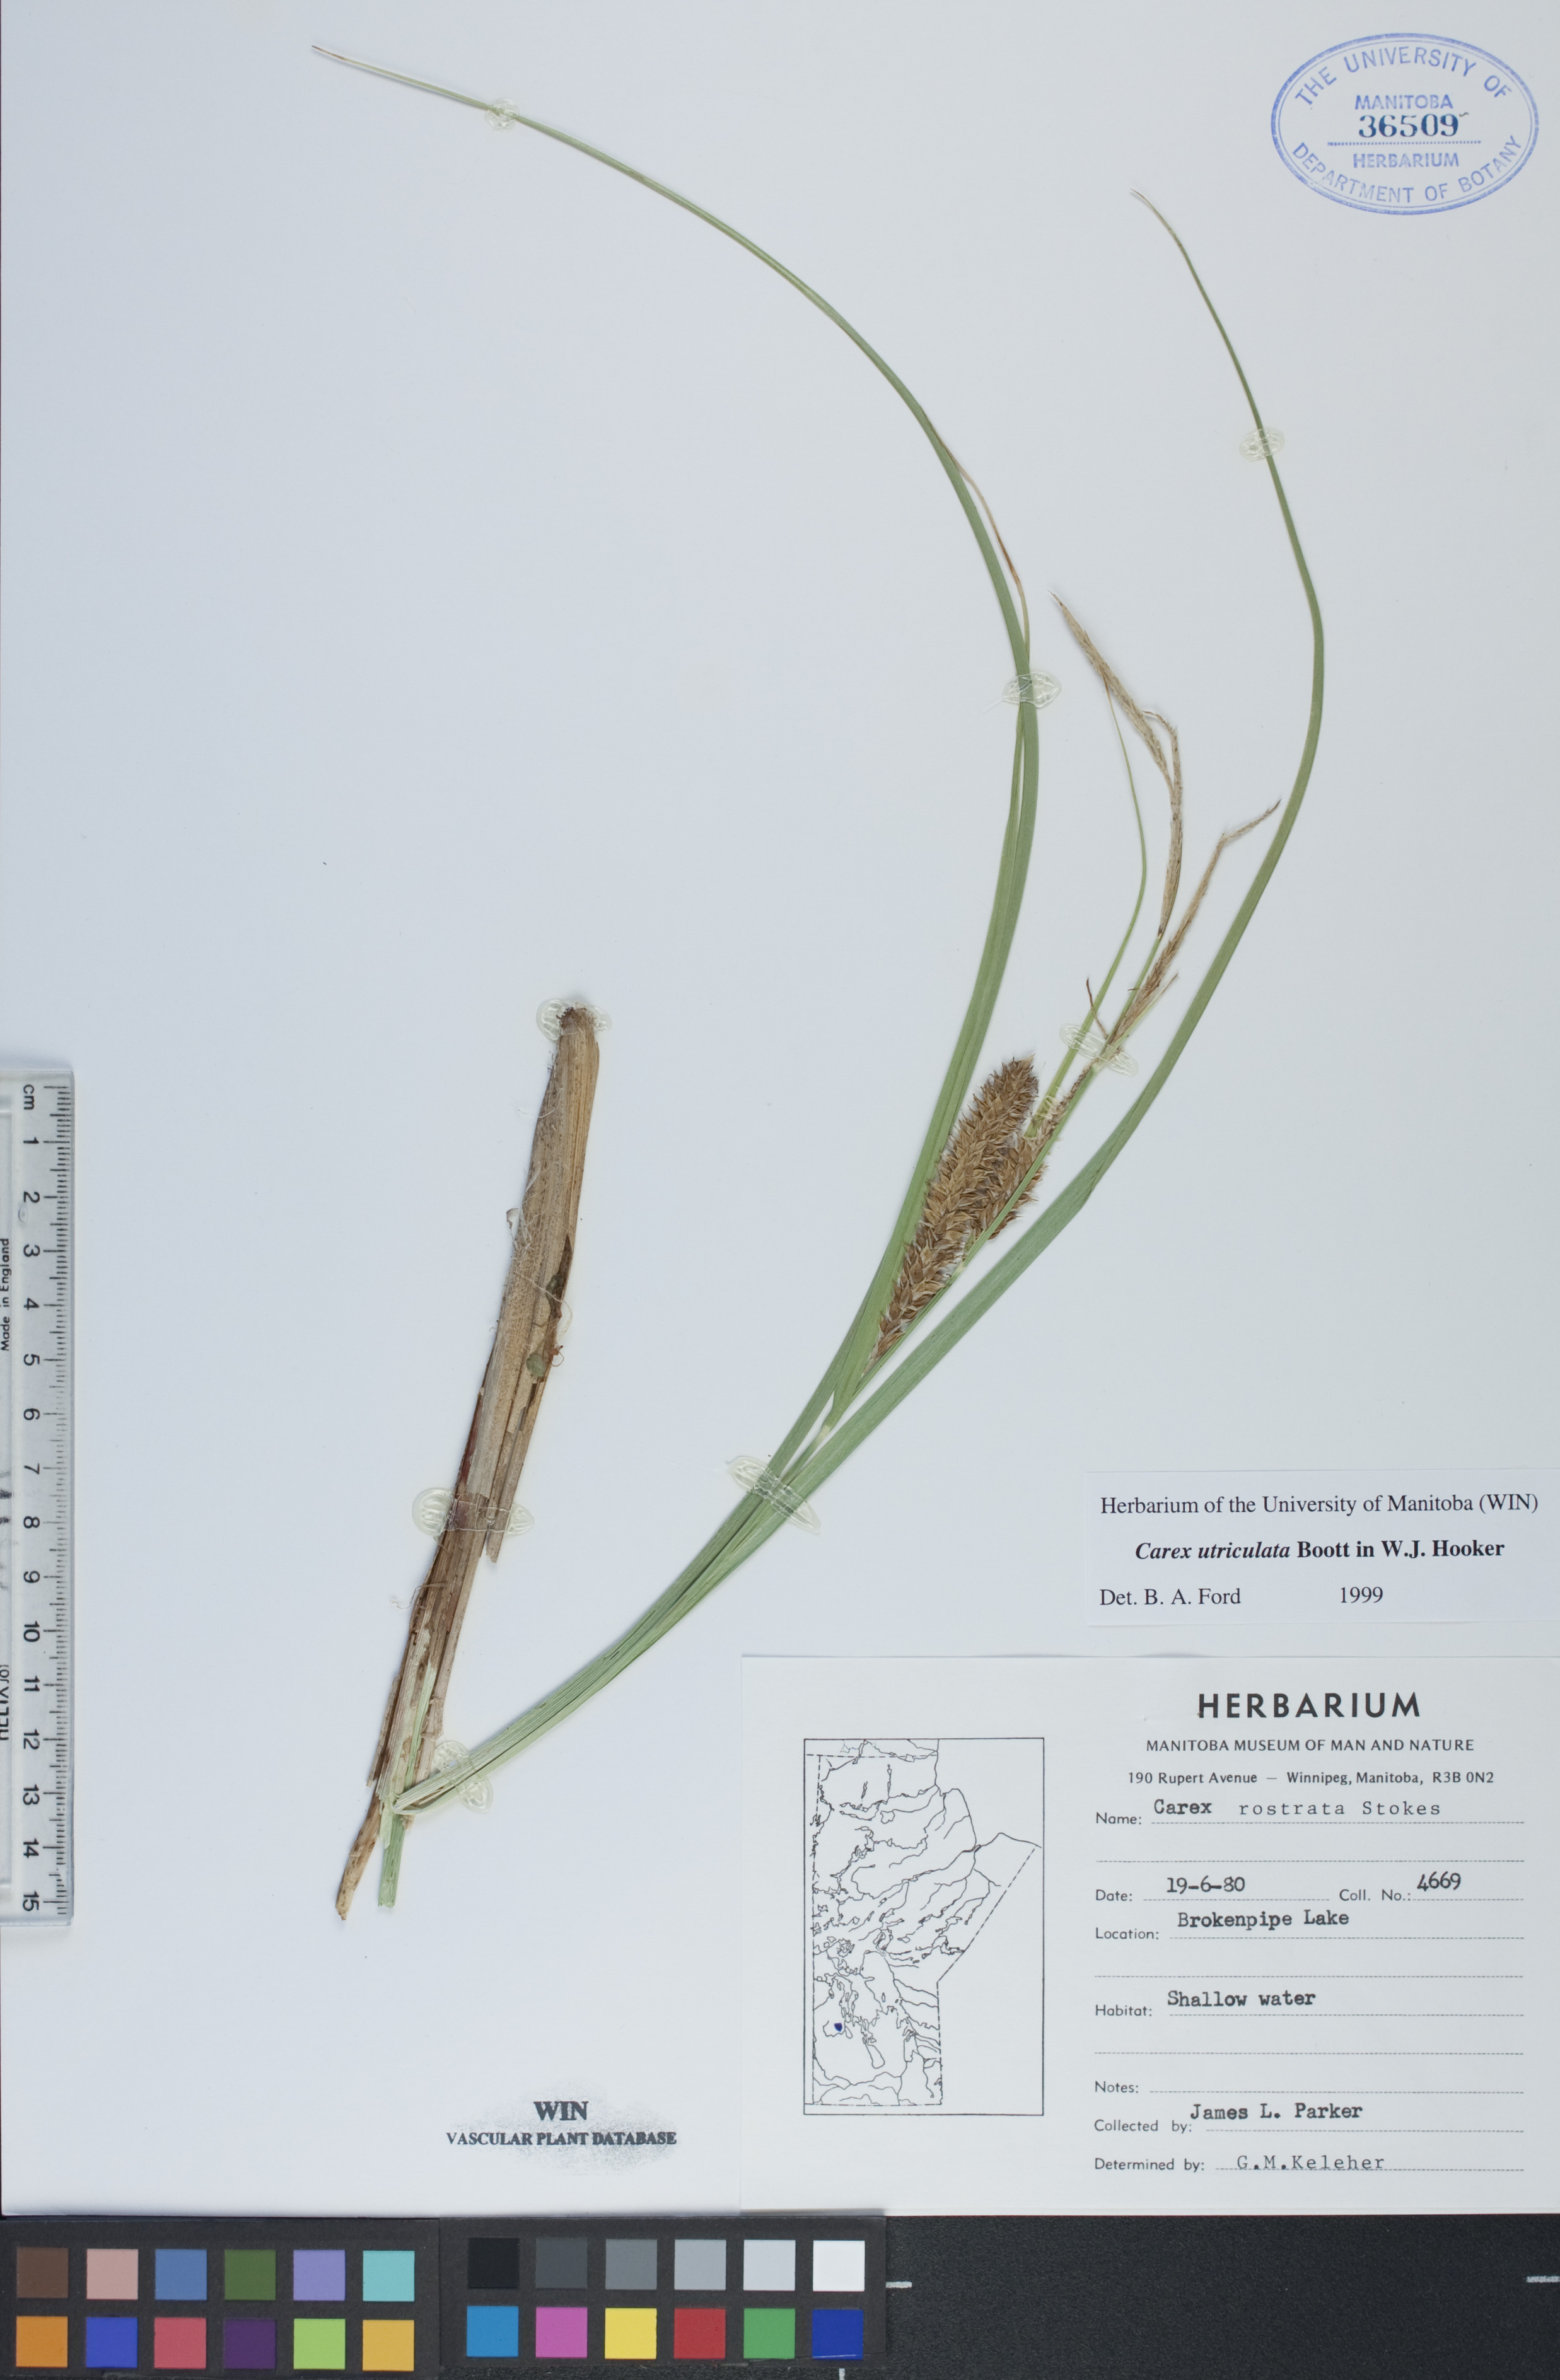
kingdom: Plantae
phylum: Tracheophyta
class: Liliopsida
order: Poales
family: Cyperaceae
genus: Carex
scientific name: Carex utriculata
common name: Beaked sedge
